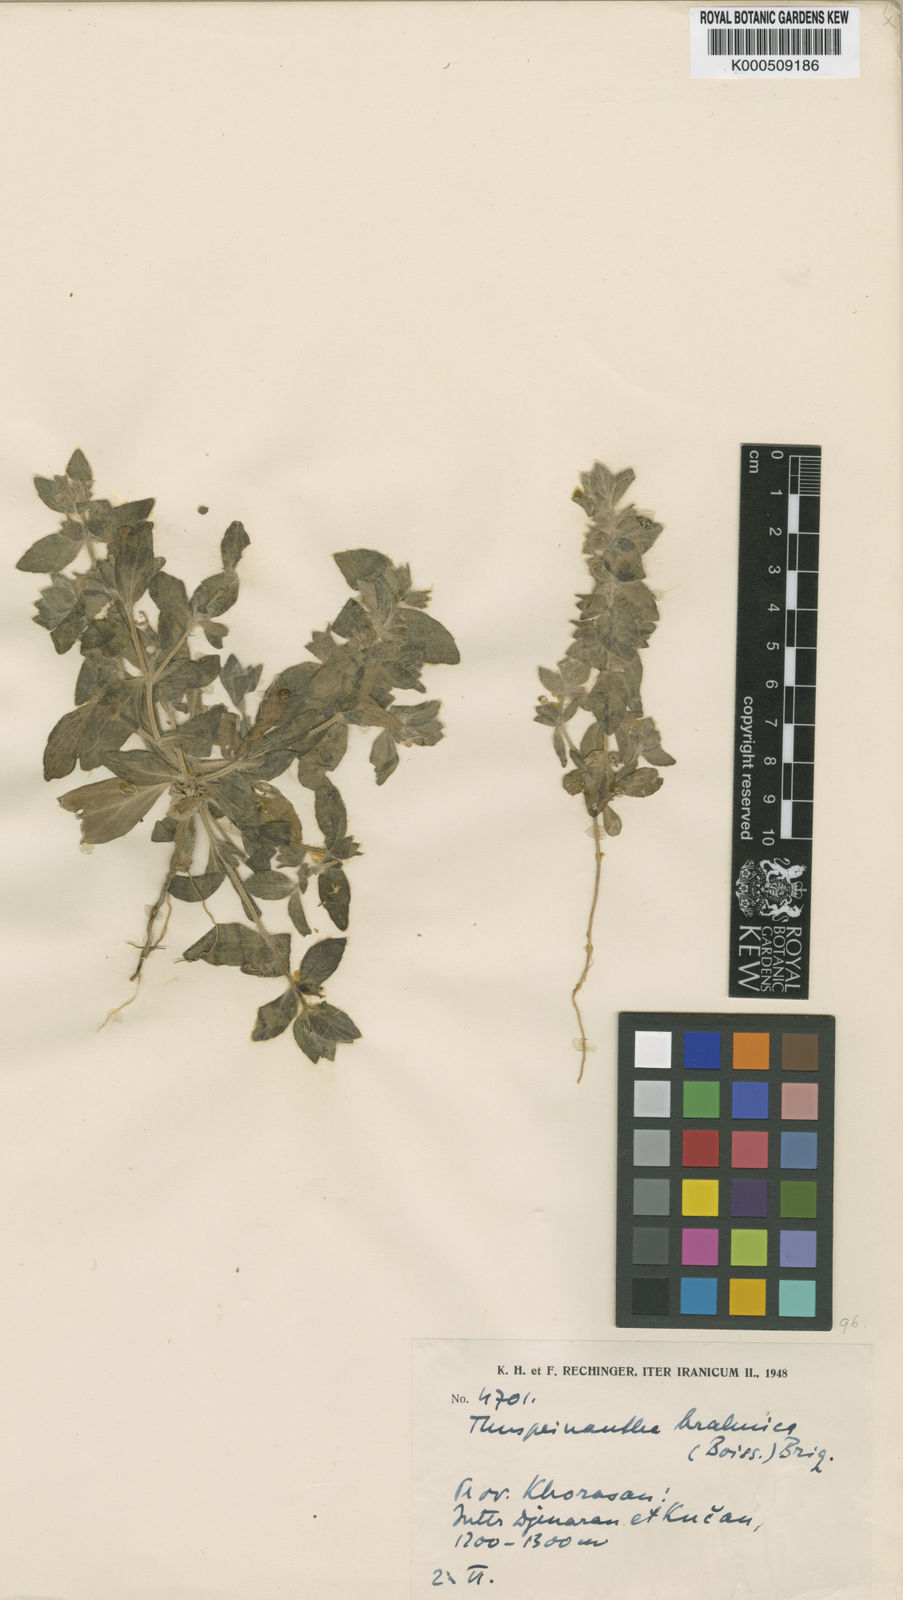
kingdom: Plantae
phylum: Tracheophyta
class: Magnoliopsida
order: Lamiales
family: Lamiaceae
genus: Thuspeinanta
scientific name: Thuspeinanta brahuica
